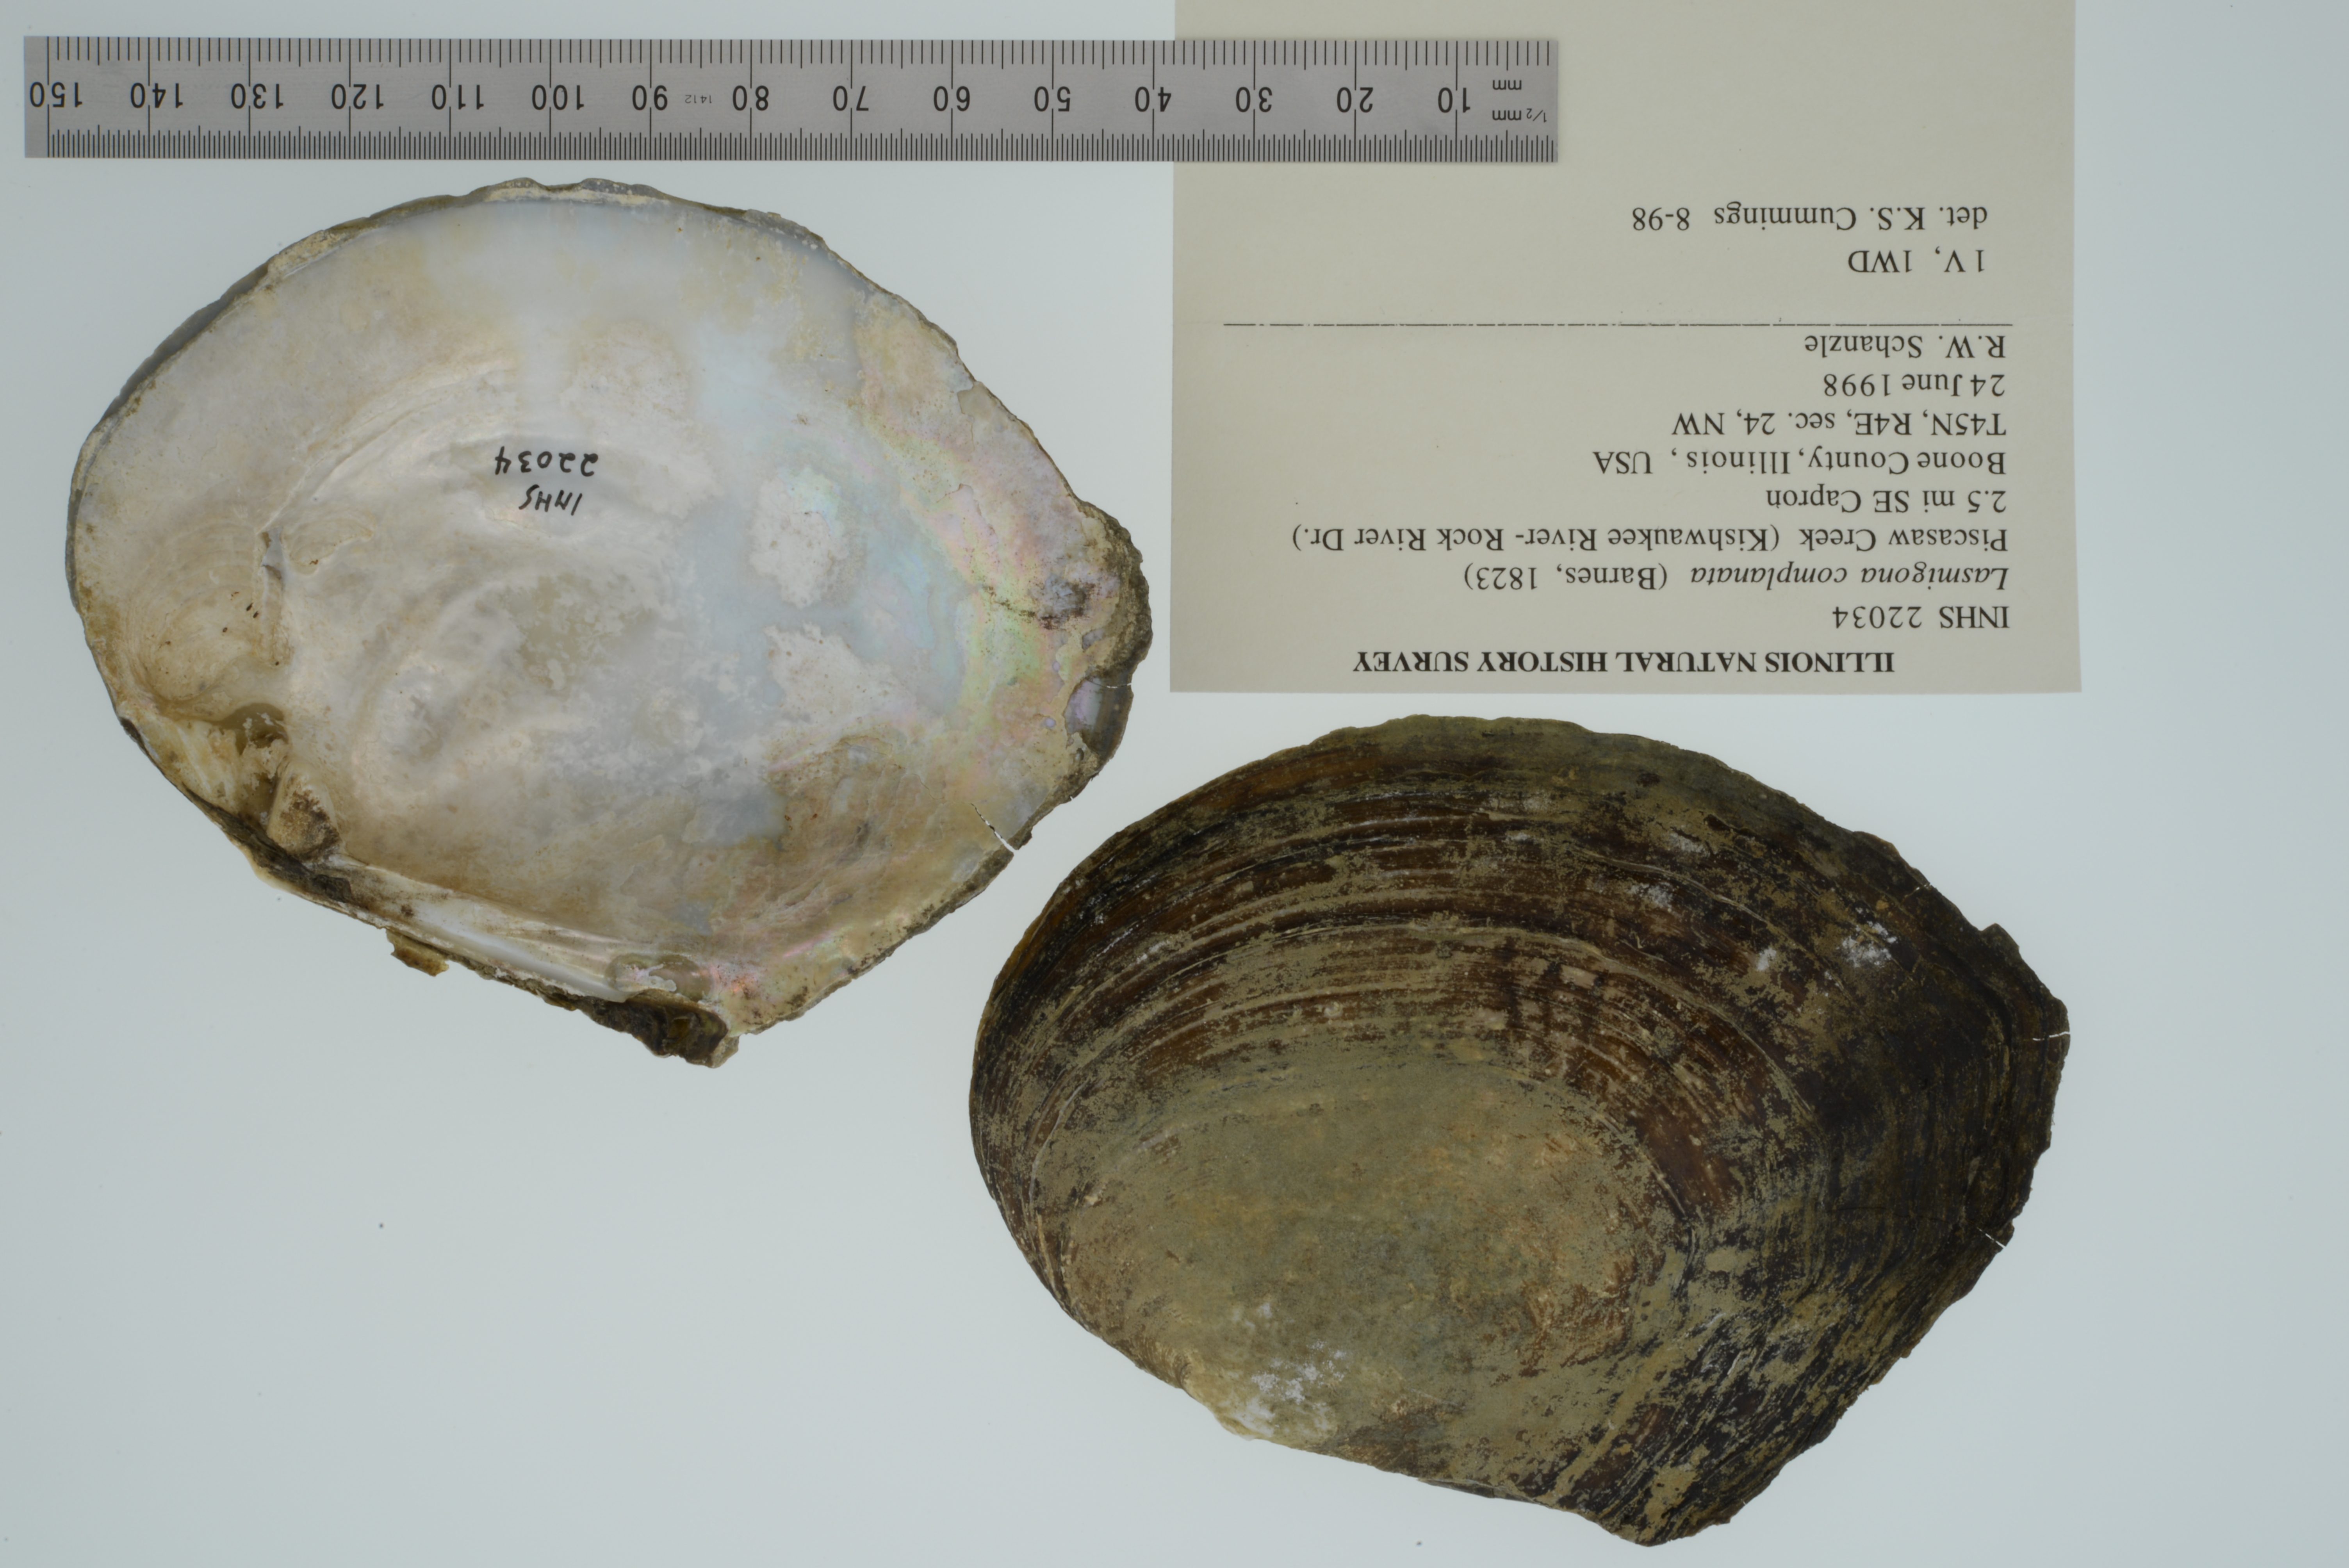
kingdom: Animalia
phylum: Mollusca
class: Bivalvia
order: Unionida
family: Unionidae
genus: Lasmigona
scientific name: Lasmigona complanata
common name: White heelsplitter
